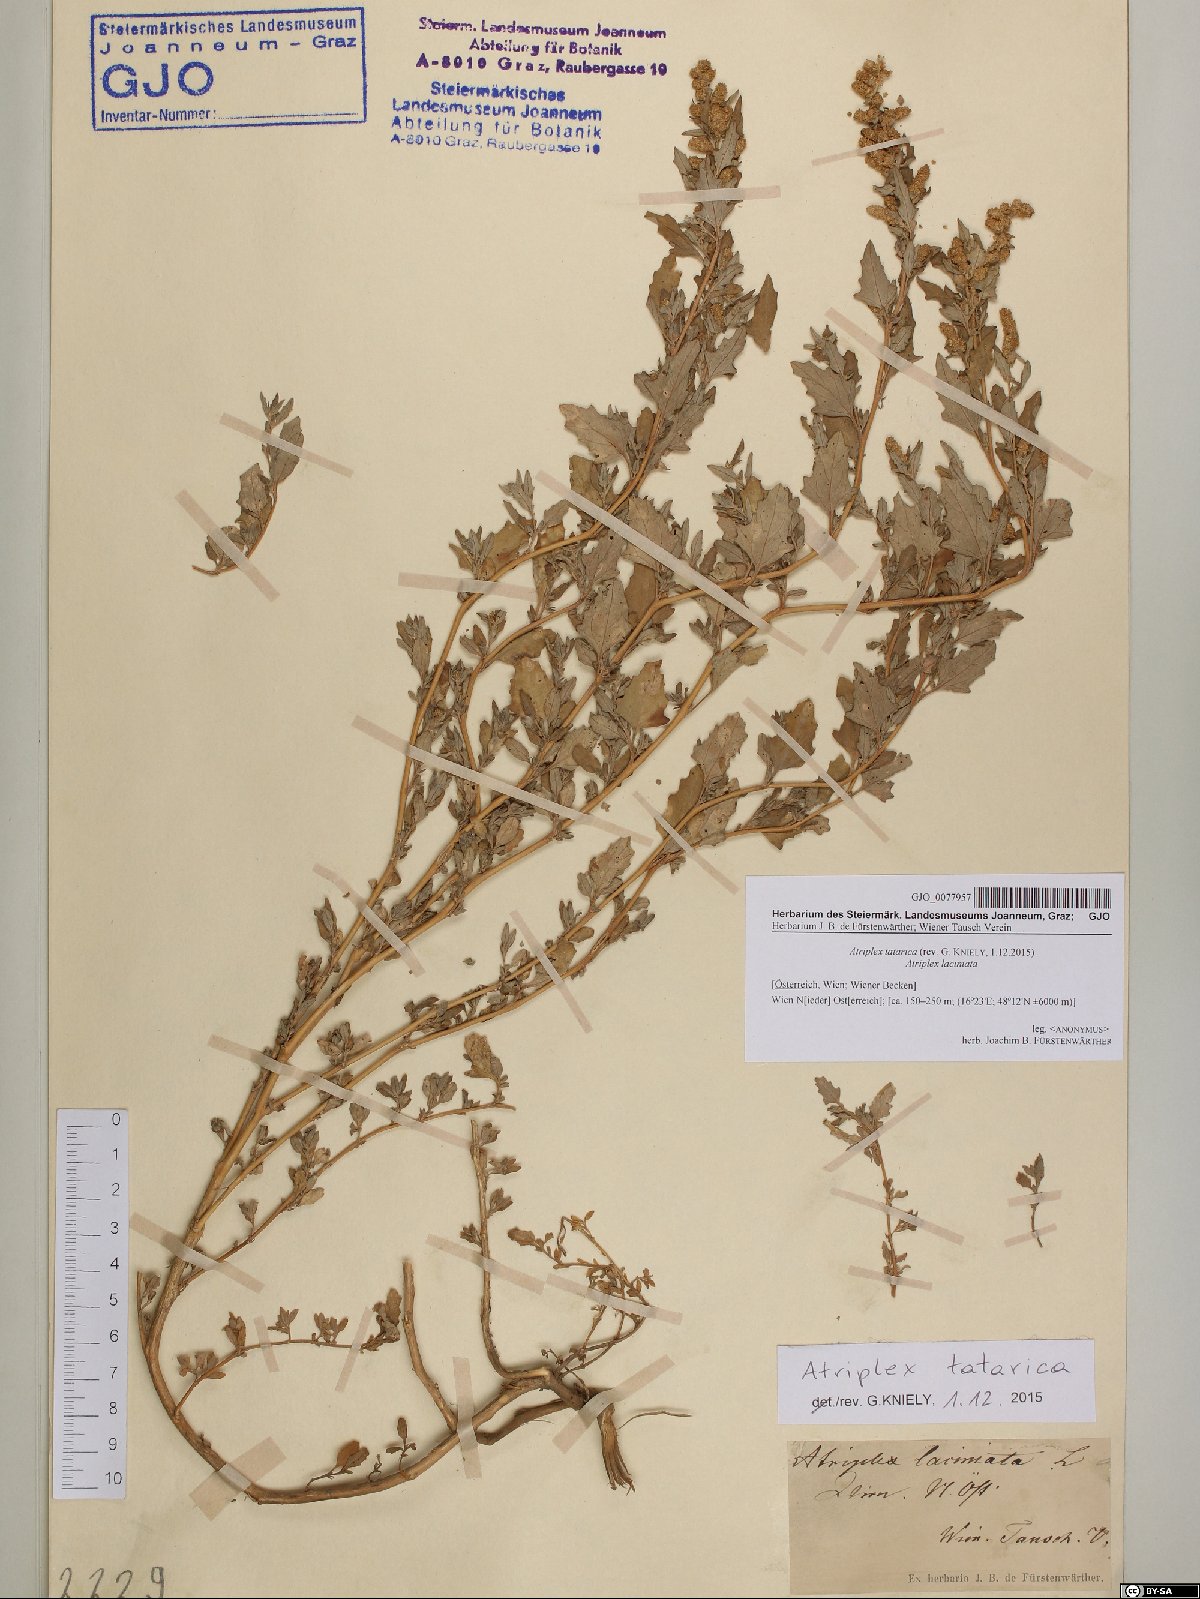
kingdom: Plantae
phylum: Tracheophyta
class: Magnoliopsida
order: Caryophyllales
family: Amaranthaceae
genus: Atriplex
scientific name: Atriplex tatarica
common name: Tatarian orache
